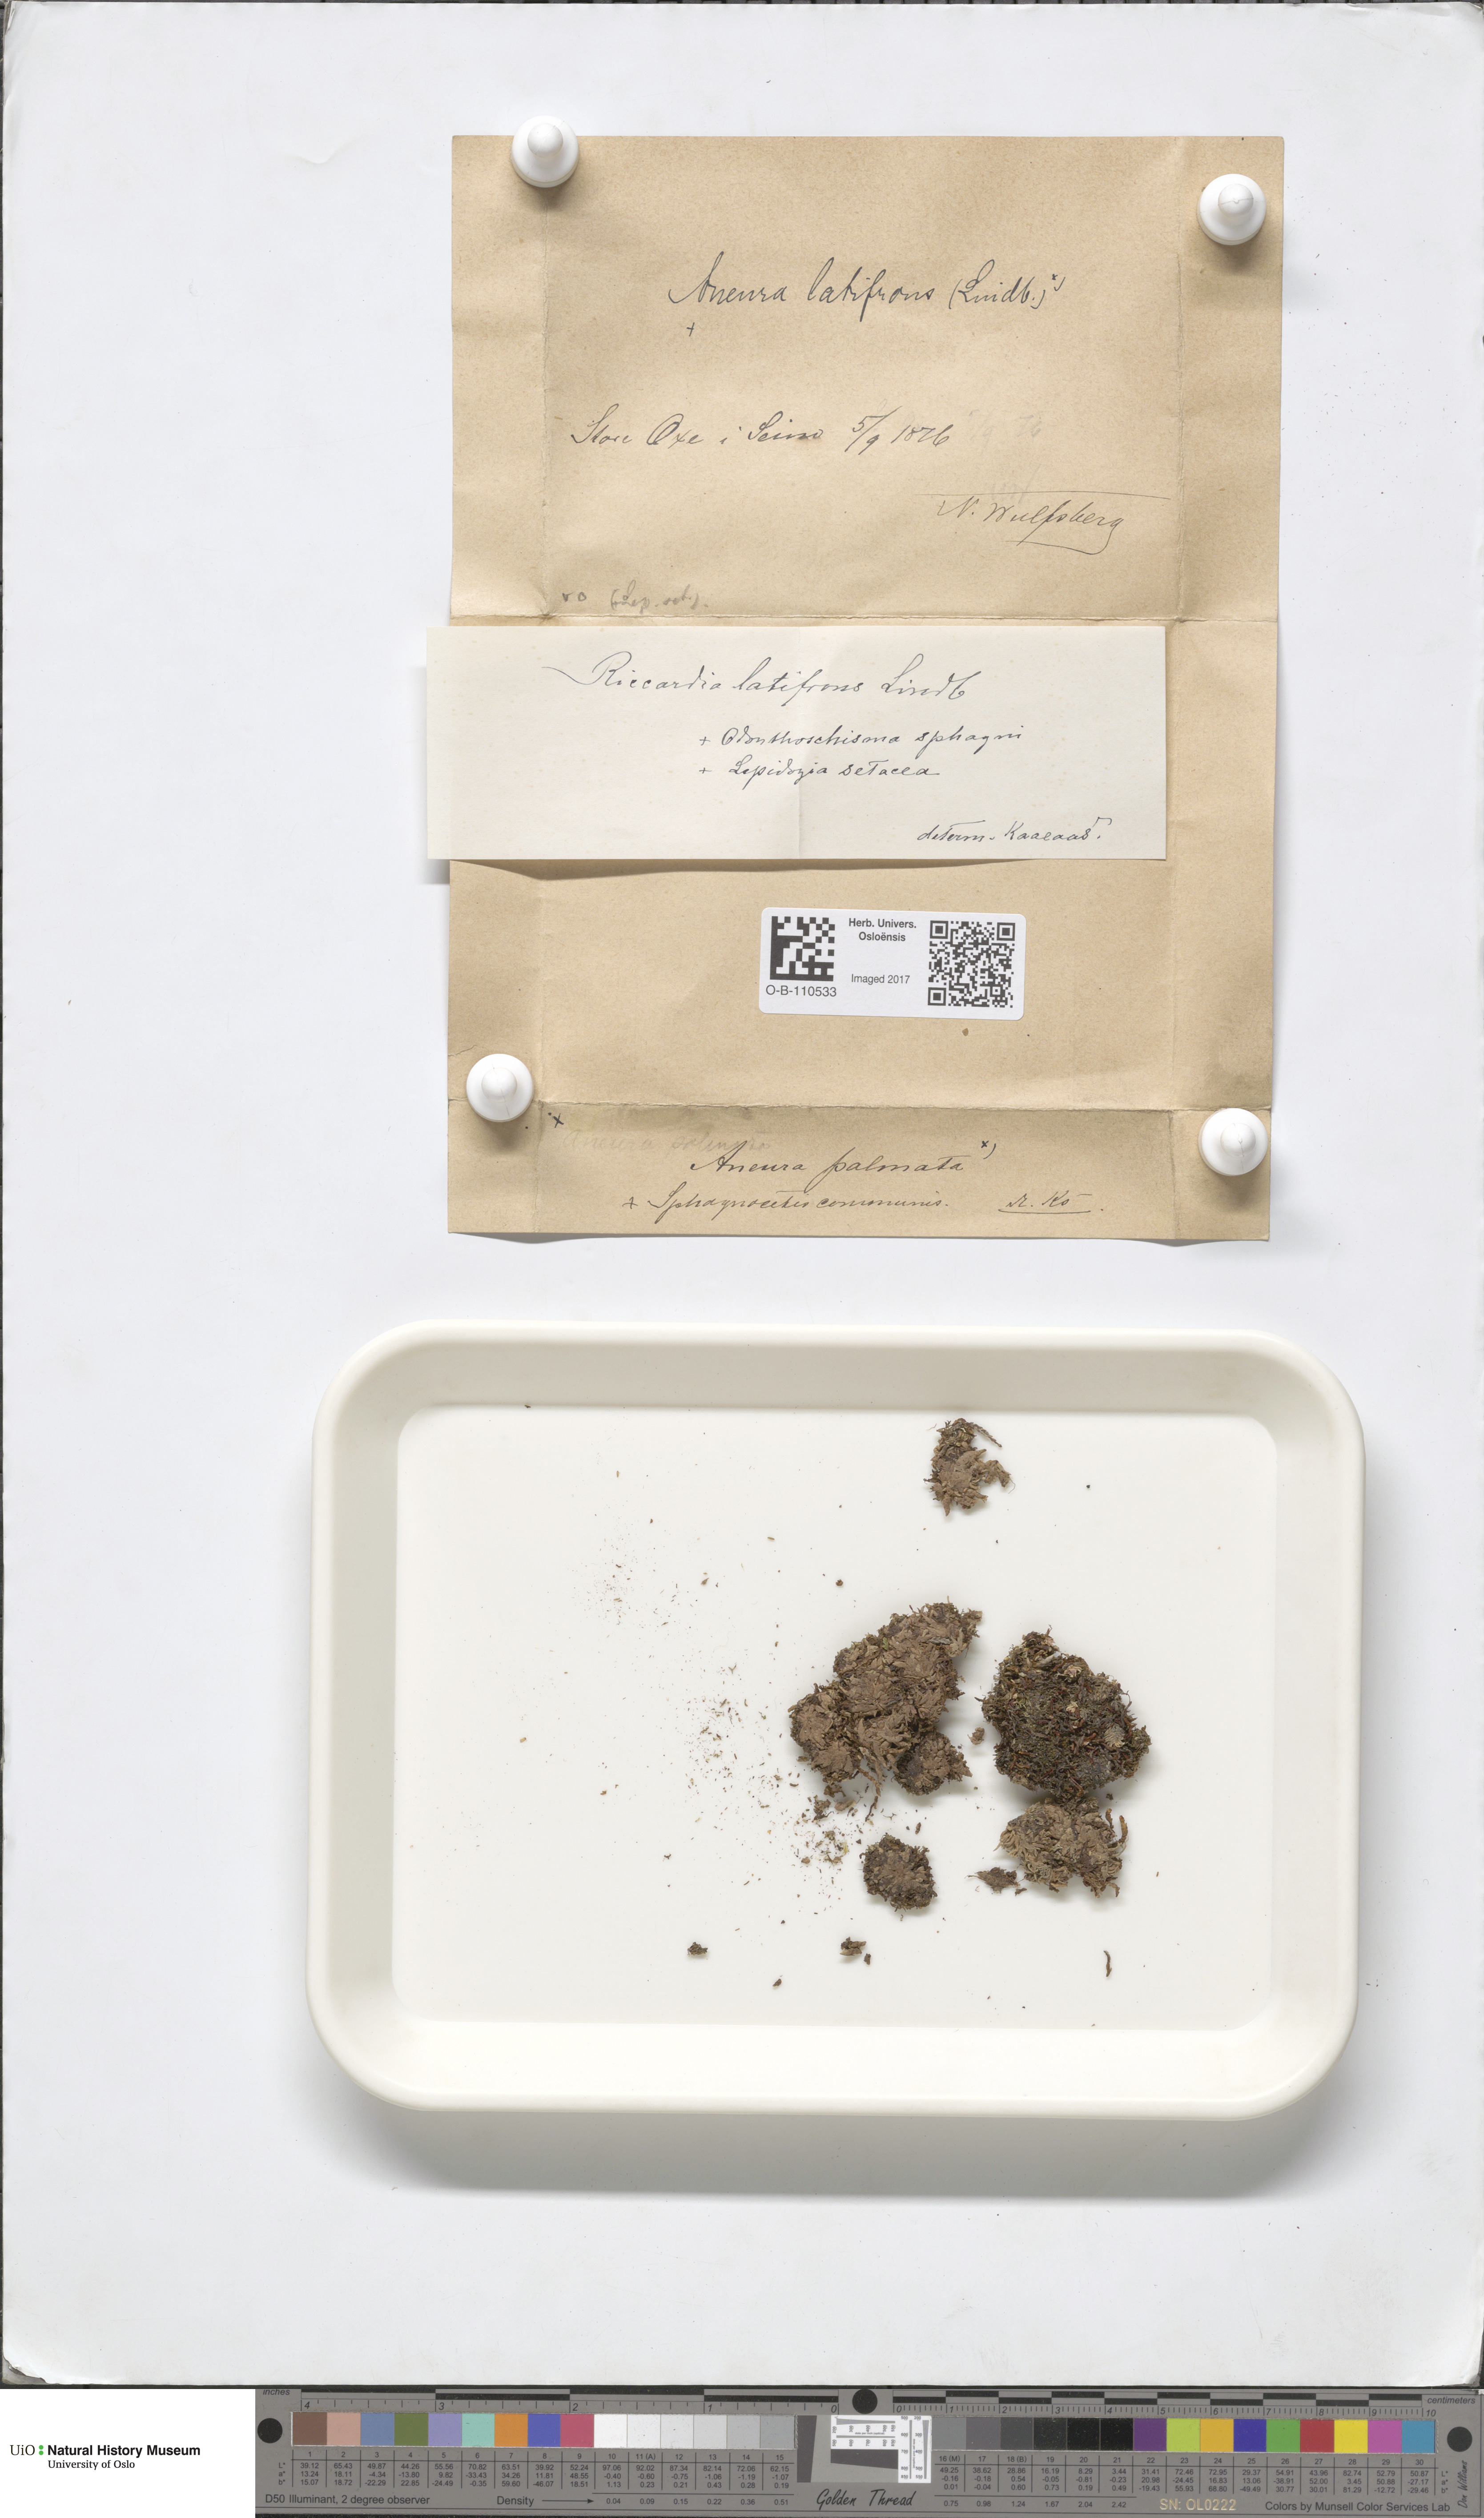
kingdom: Plantae
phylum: Marchantiophyta
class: Jungermanniopsida
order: Metzgeriales
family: Aneuraceae
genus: Riccardia
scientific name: Riccardia latifrons
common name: Bog germanderwort
